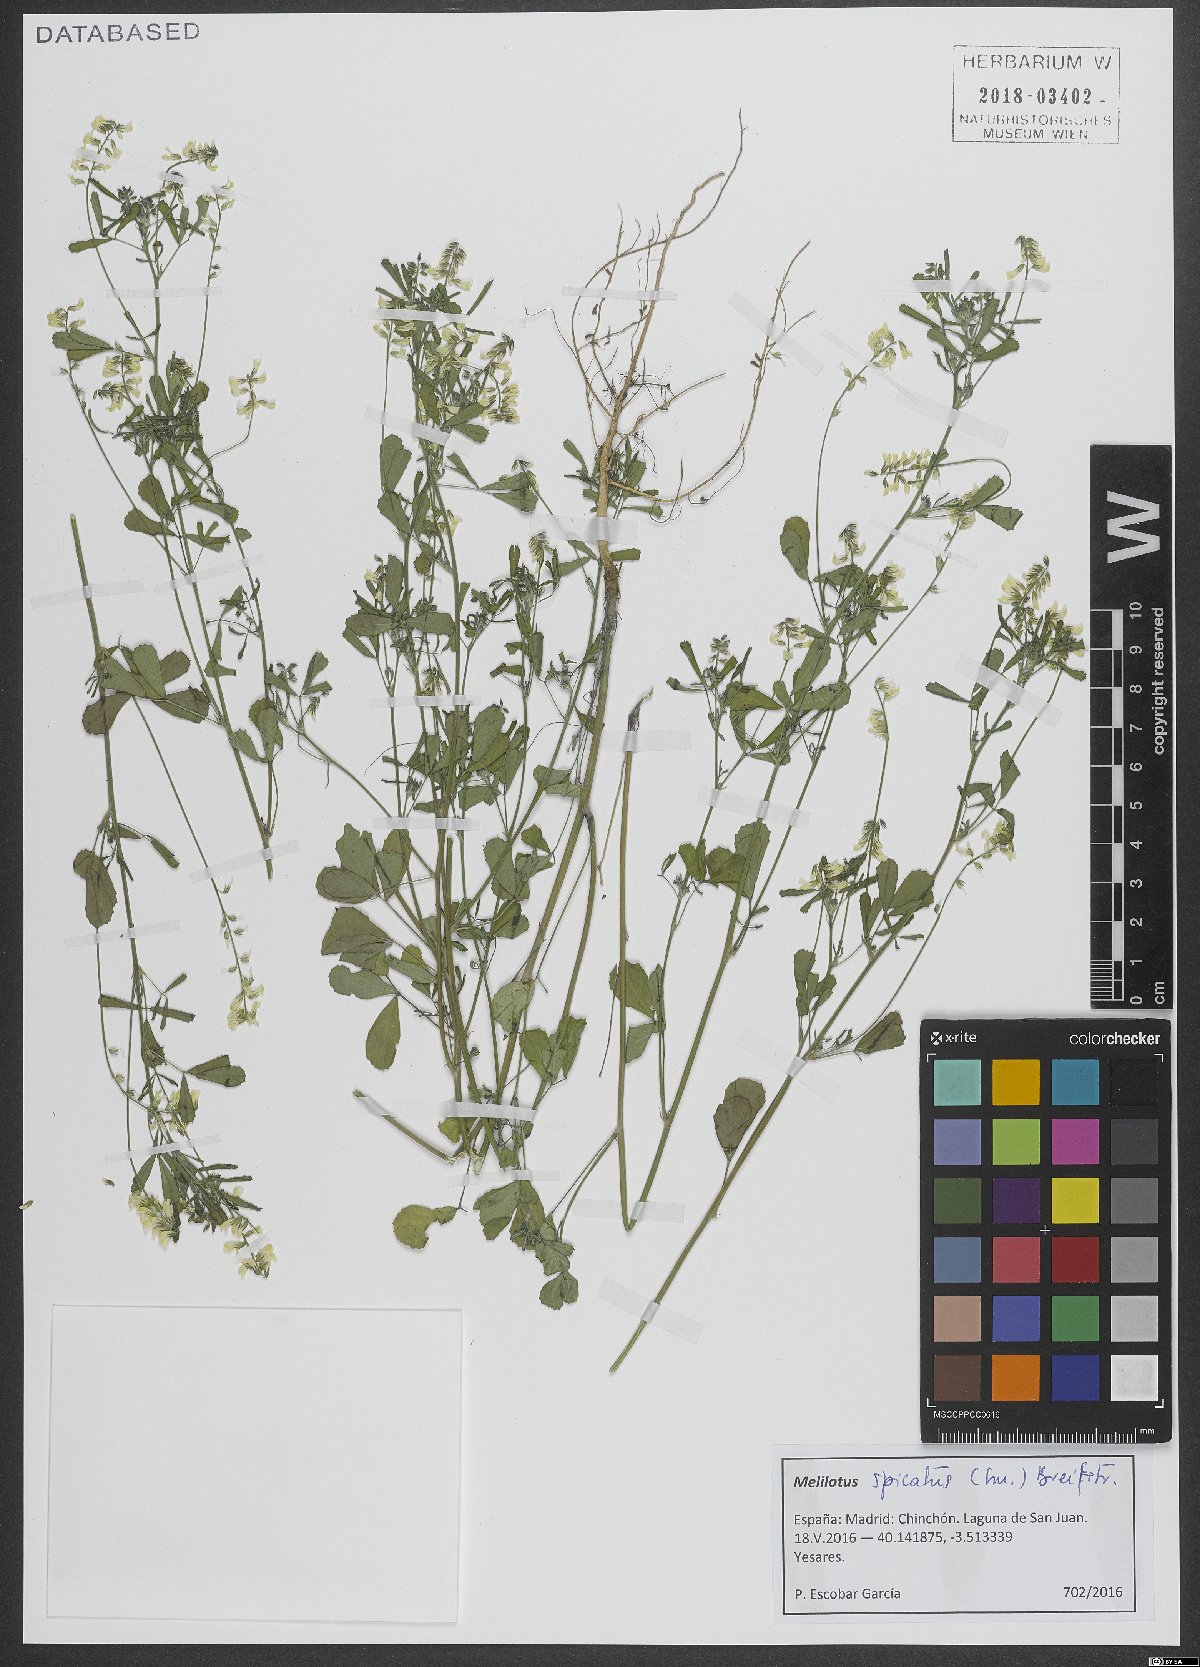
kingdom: Plantae
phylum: Tracheophyta
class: Magnoliopsida
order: Fabales
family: Fabaceae
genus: Melilotus
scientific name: Melilotus neapolitanus
